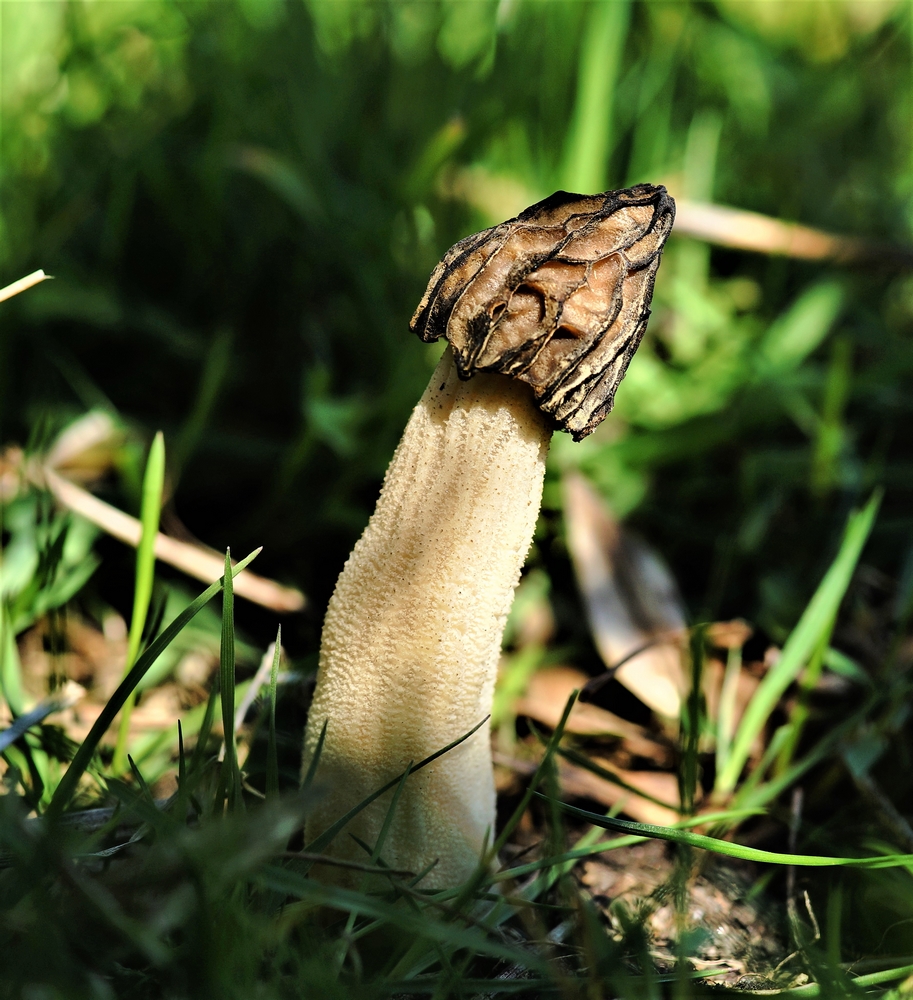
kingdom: Fungi
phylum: Ascomycota
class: Pezizomycetes
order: Pezizales
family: Morchellaceae
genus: Morchella
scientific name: Morchella semilibera
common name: hætte-morkel
